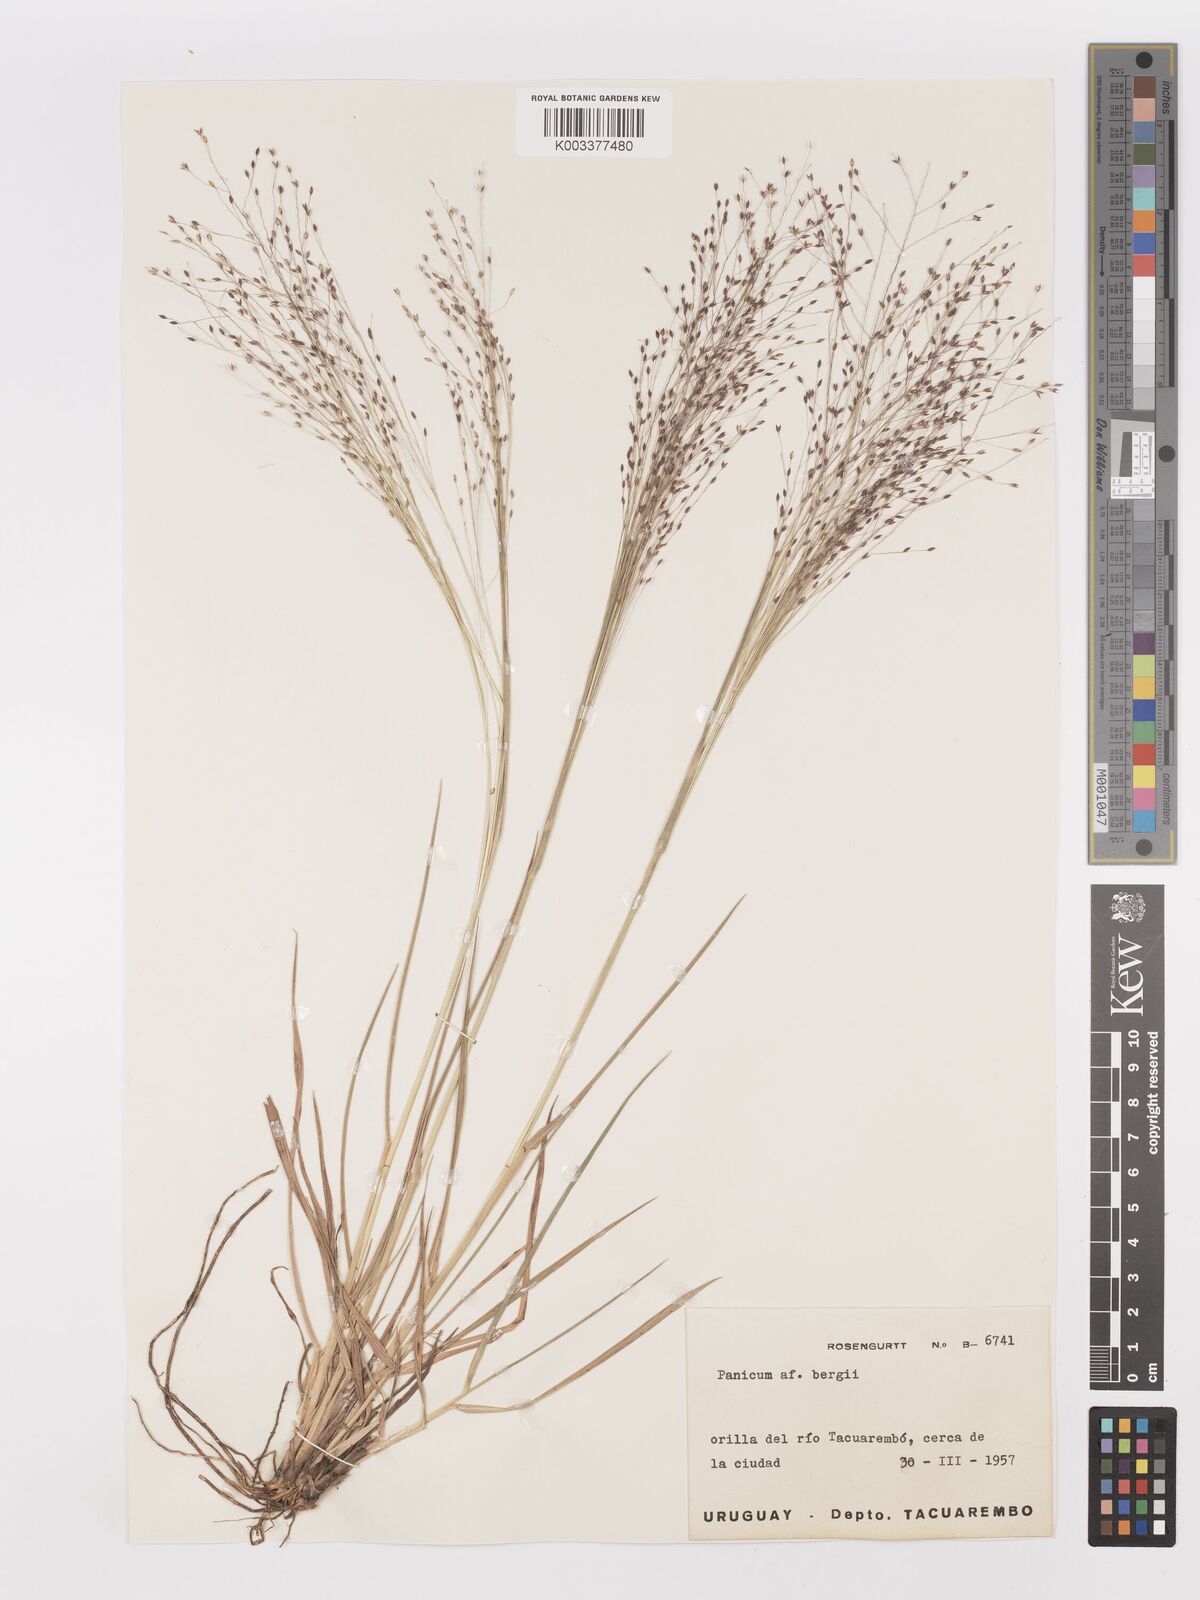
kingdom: Plantae
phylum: Tracheophyta
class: Liliopsida
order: Poales
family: Poaceae
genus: Panicum
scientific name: Panicum bergii
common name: Berg's panicgrass
